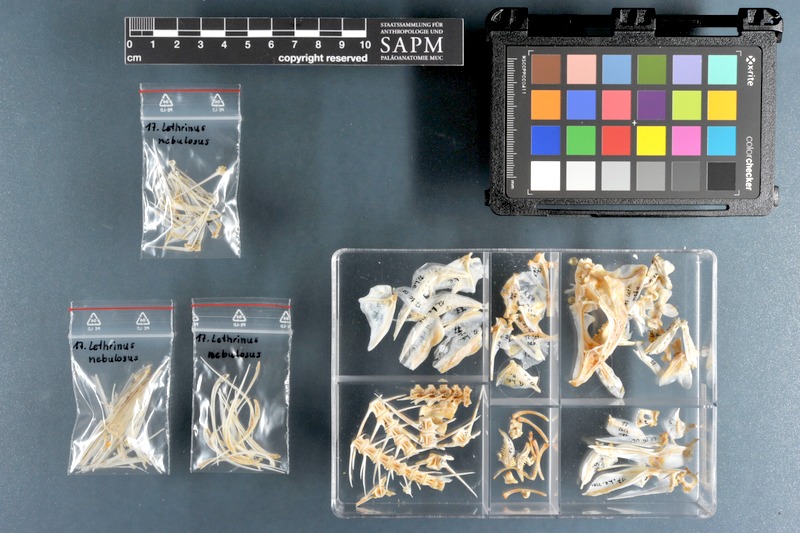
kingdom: Animalia
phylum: Chordata
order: Perciformes
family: Lethrinidae
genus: Lethrinus
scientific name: Lethrinus nebulosus
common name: Spangled emperor
